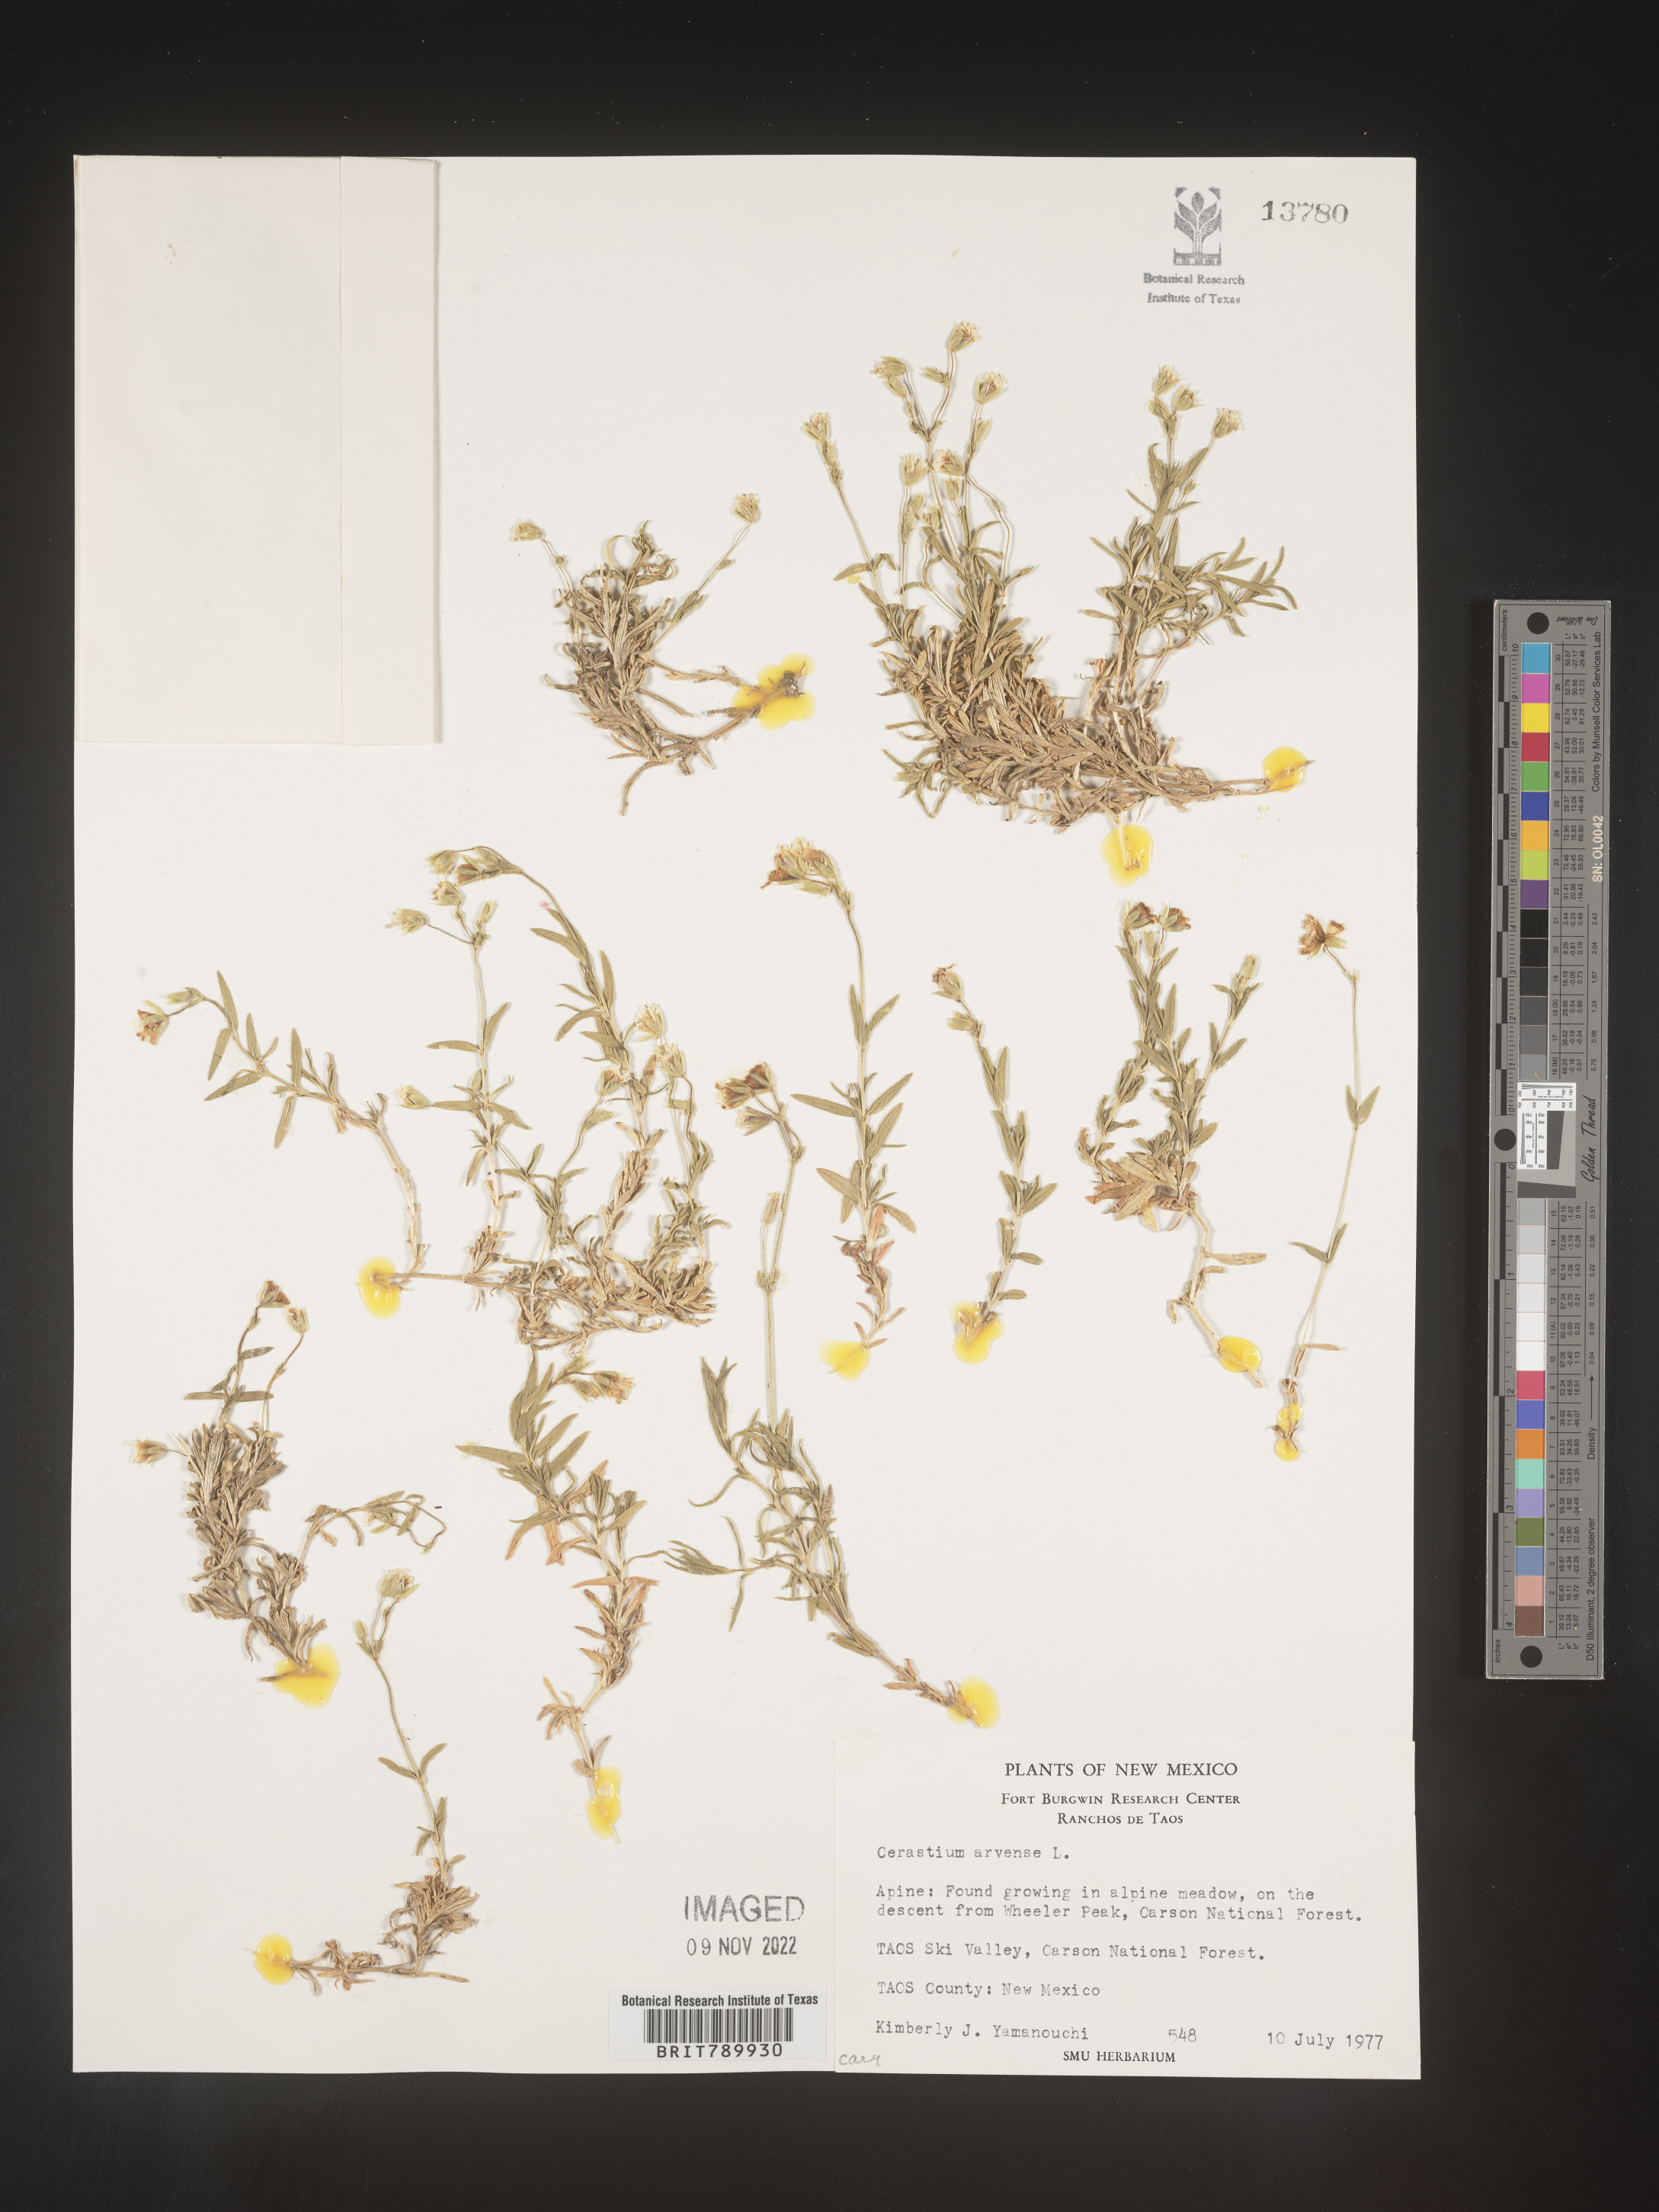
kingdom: Plantae
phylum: Tracheophyta
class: Magnoliopsida
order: Caryophyllales
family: Caryophyllaceae
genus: Cerastium
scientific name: Cerastium arvense
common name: Field mouse-ear
